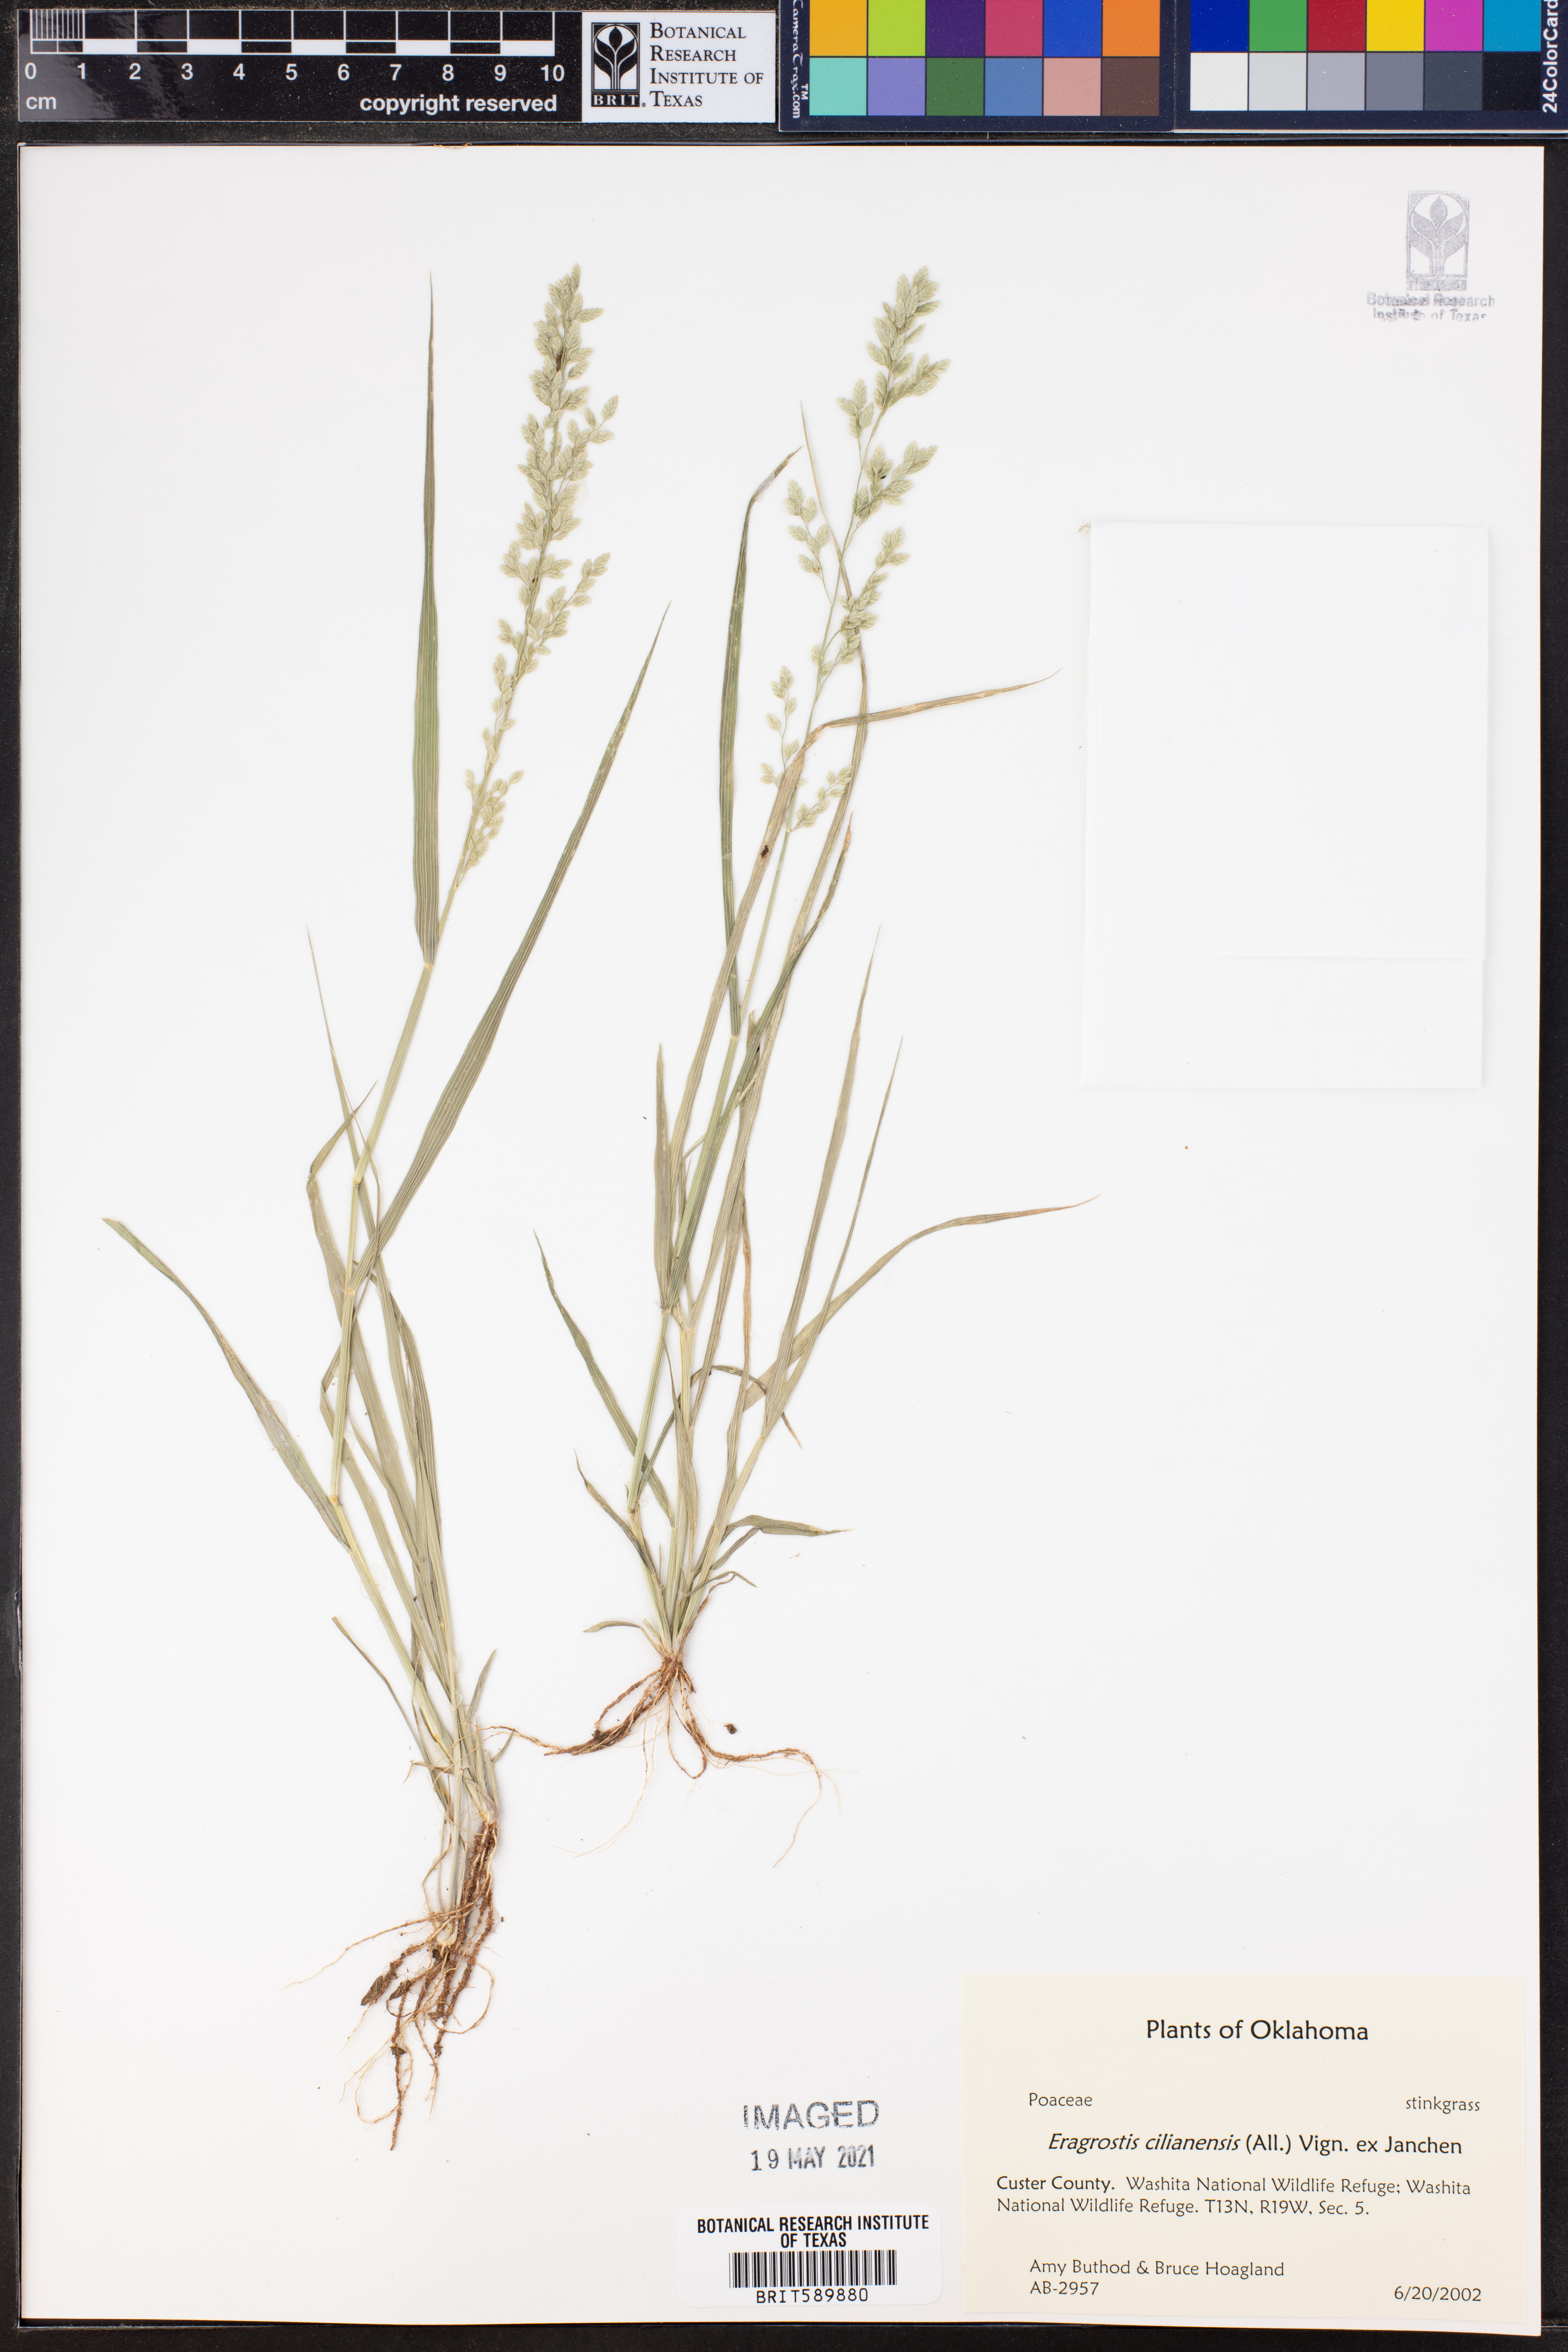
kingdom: Plantae
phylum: Tracheophyta
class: Liliopsida
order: Poales
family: Poaceae
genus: Eragrostis
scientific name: Eragrostis cilianensis
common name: Stinkgrass
